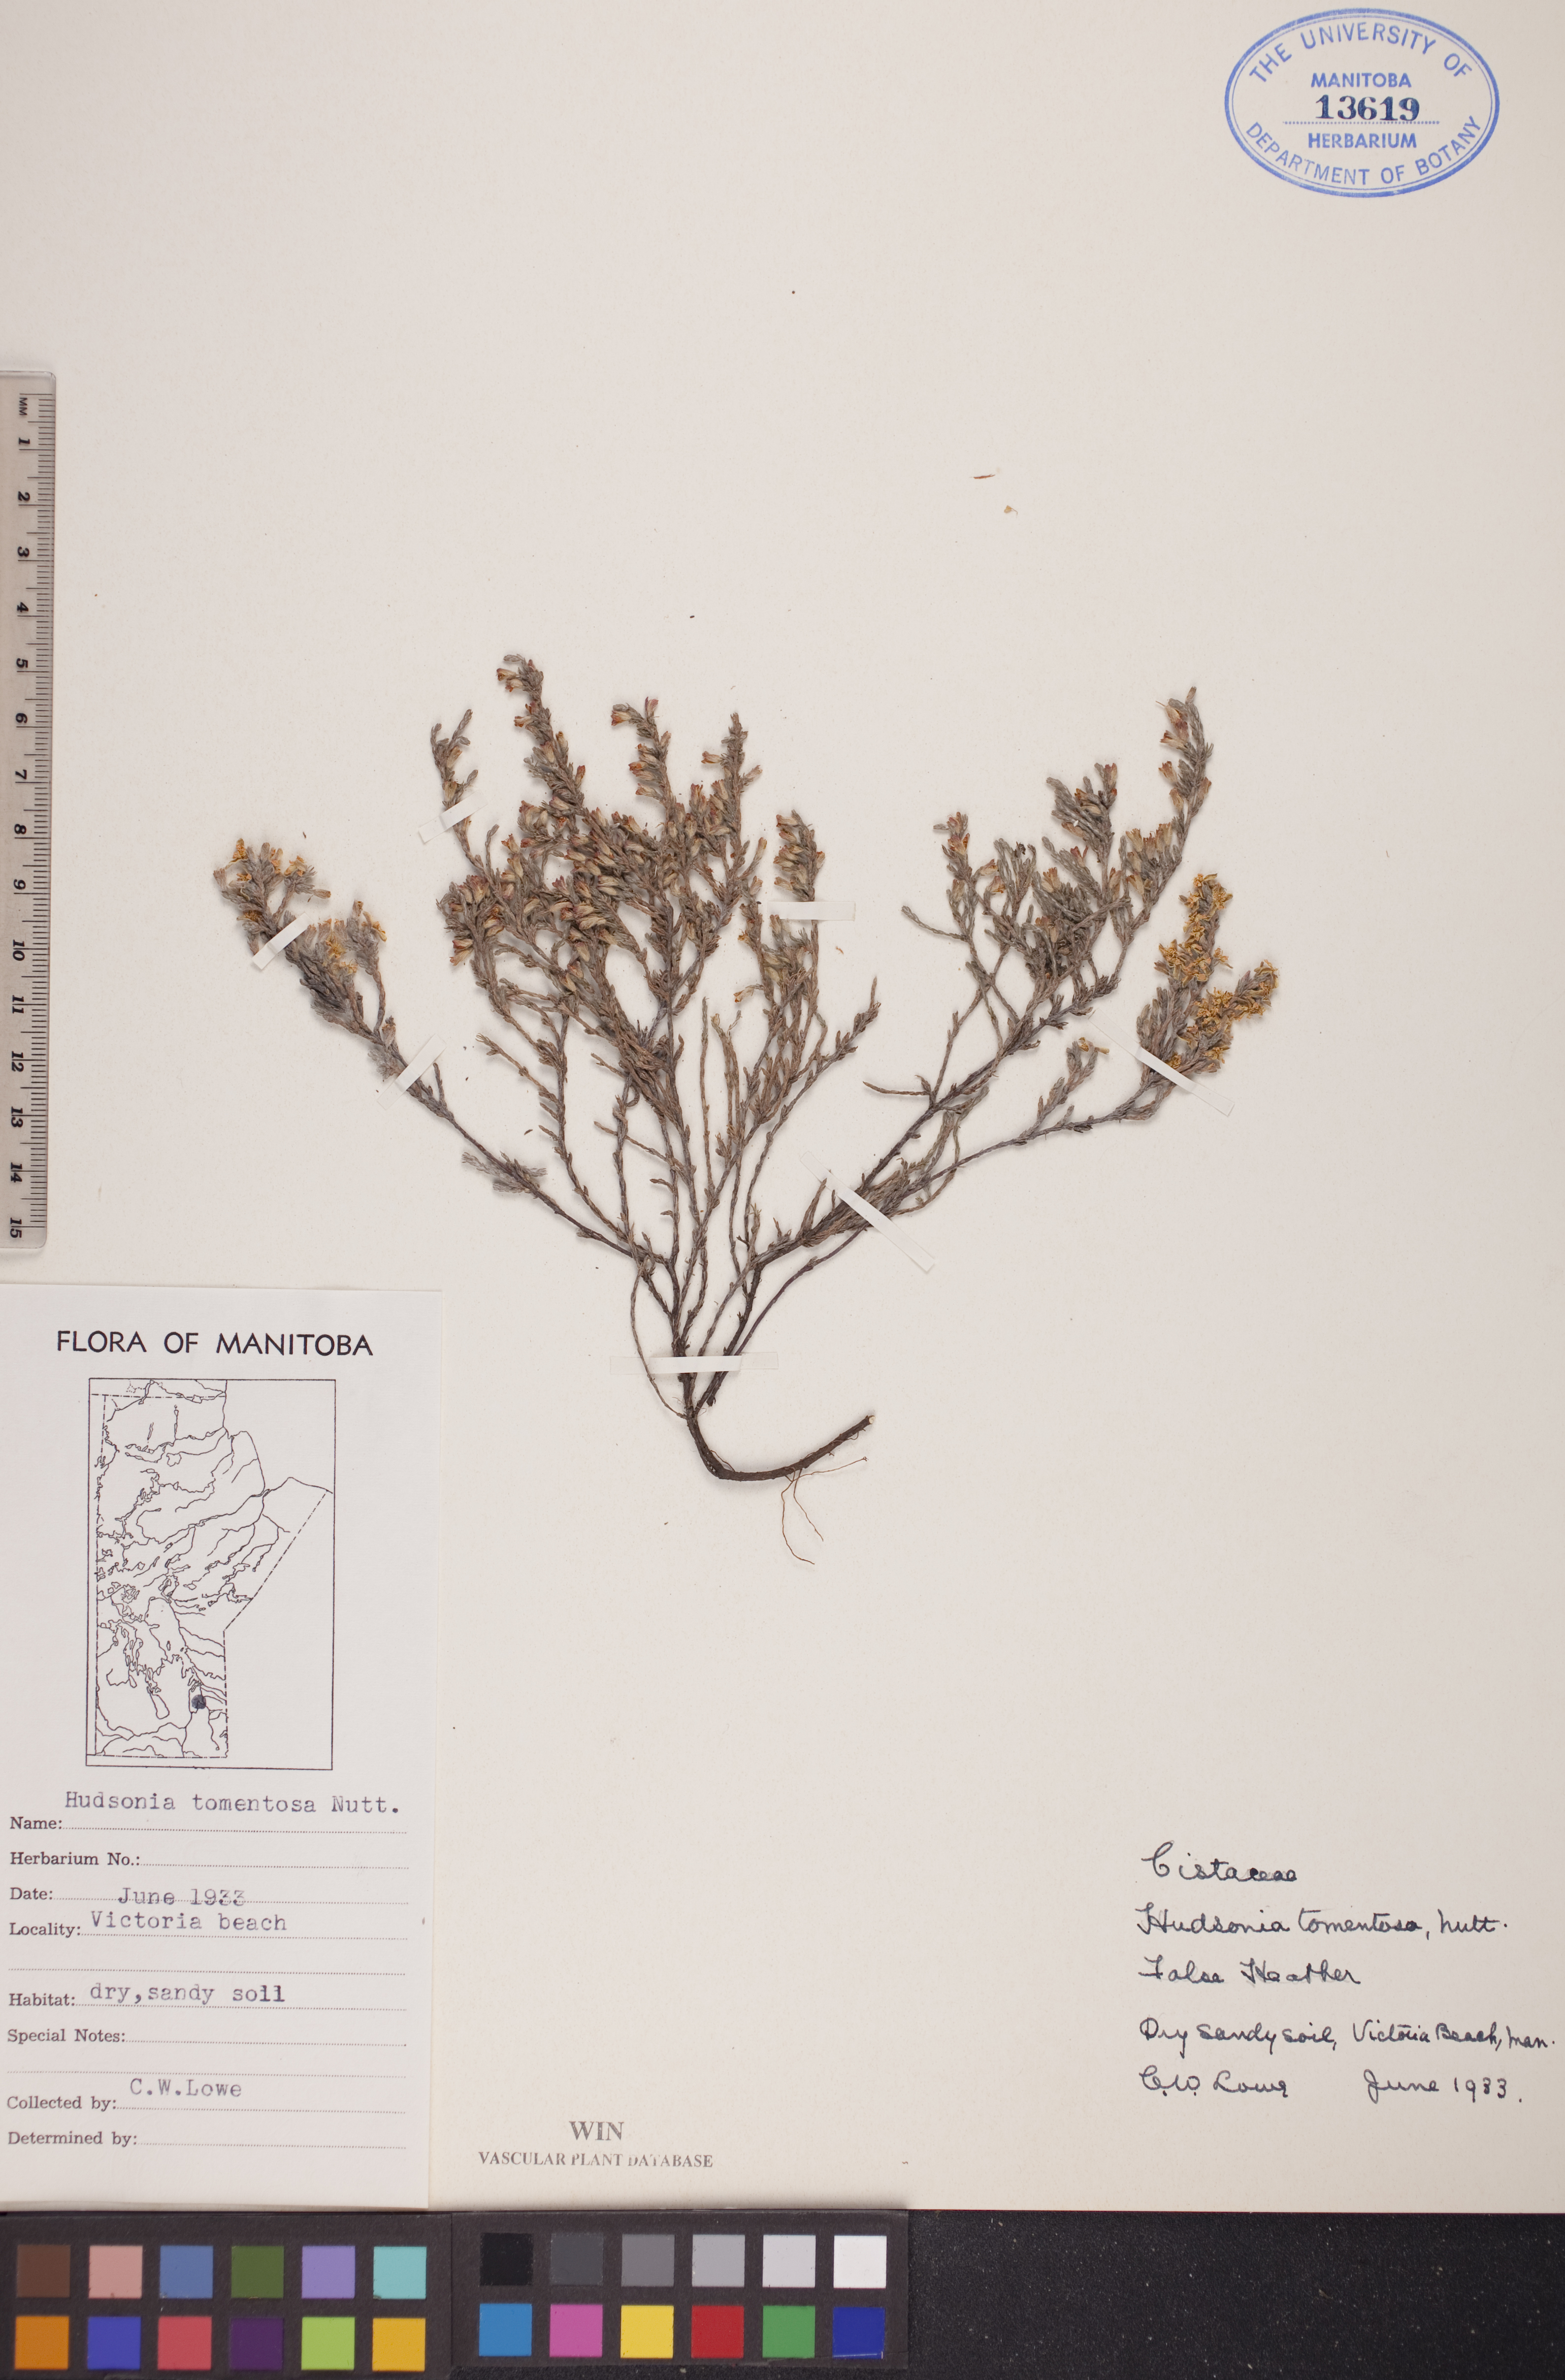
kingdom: Plantae
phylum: Tracheophyta
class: Magnoliopsida
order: Malvales
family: Cistaceae
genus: Hudsonia
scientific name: Hudsonia tomentosa
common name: Beach-heath
